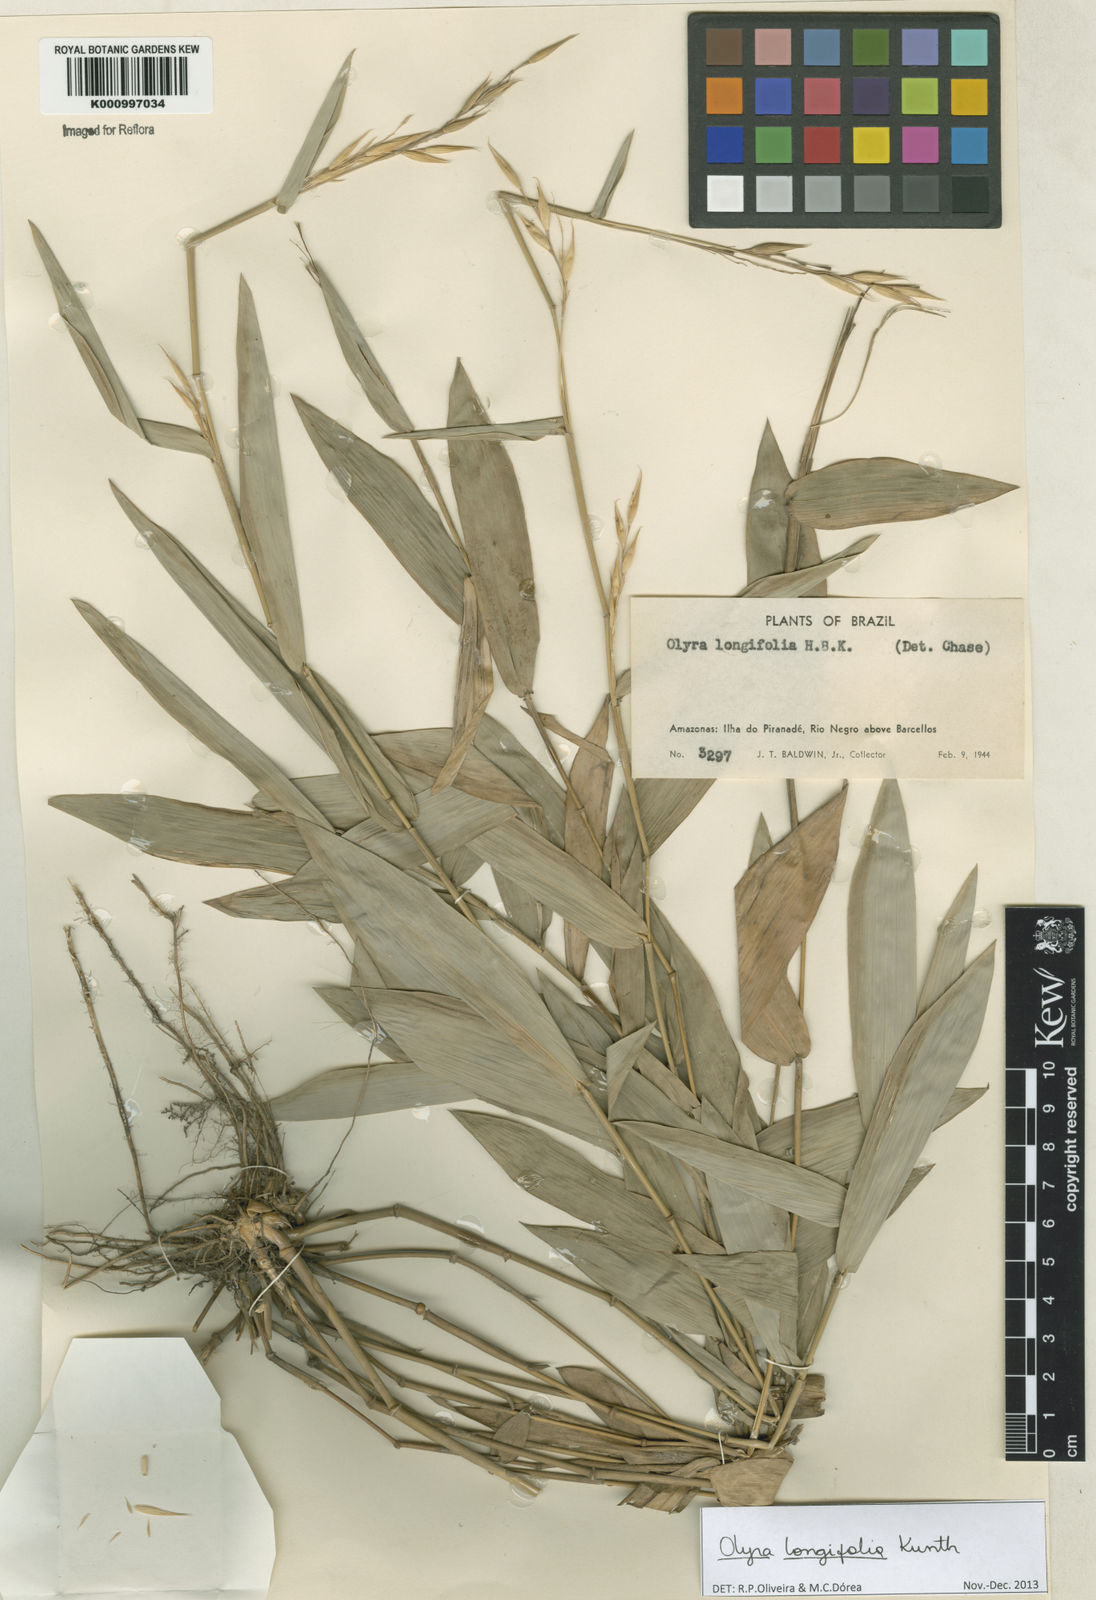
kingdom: Plantae
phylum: Tracheophyta
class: Liliopsida
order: Poales
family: Poaceae
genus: Olyra
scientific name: Olyra longifolia
